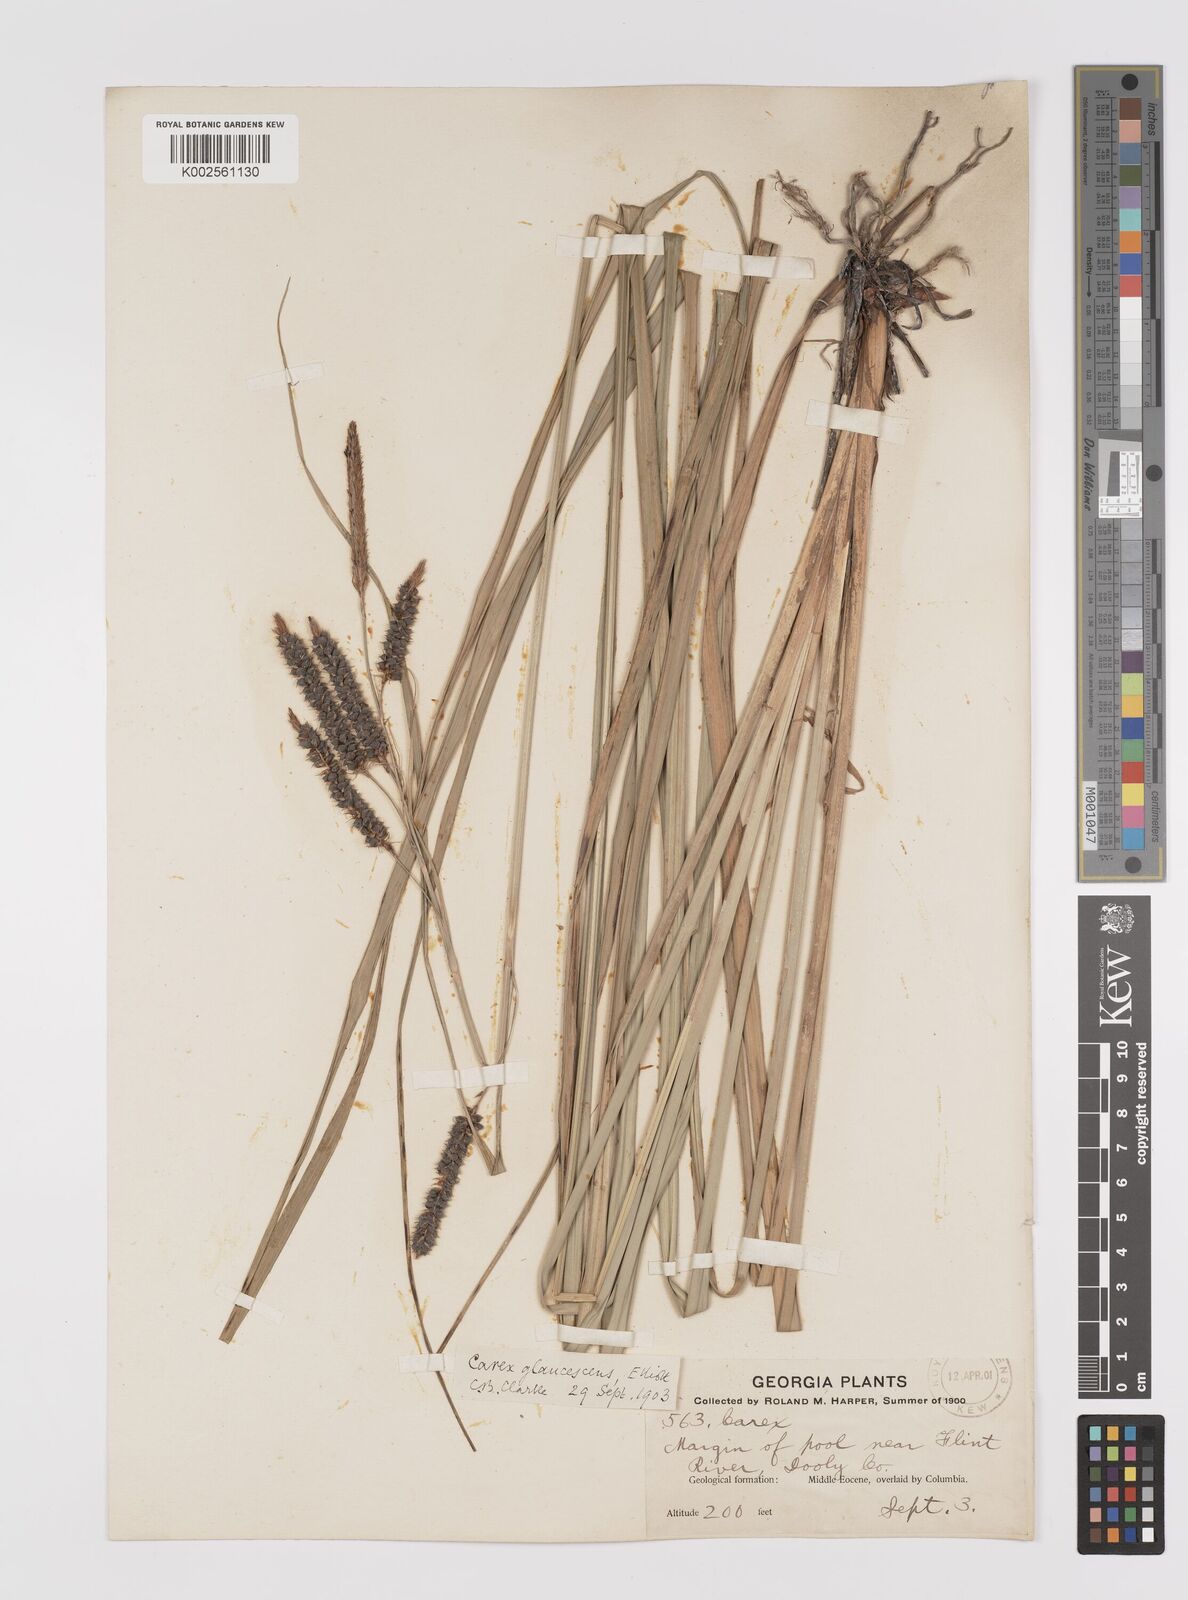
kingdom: Plantae
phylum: Tracheophyta
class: Liliopsida
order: Poales
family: Cyperaceae
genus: Carex
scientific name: Carex glaucescens
